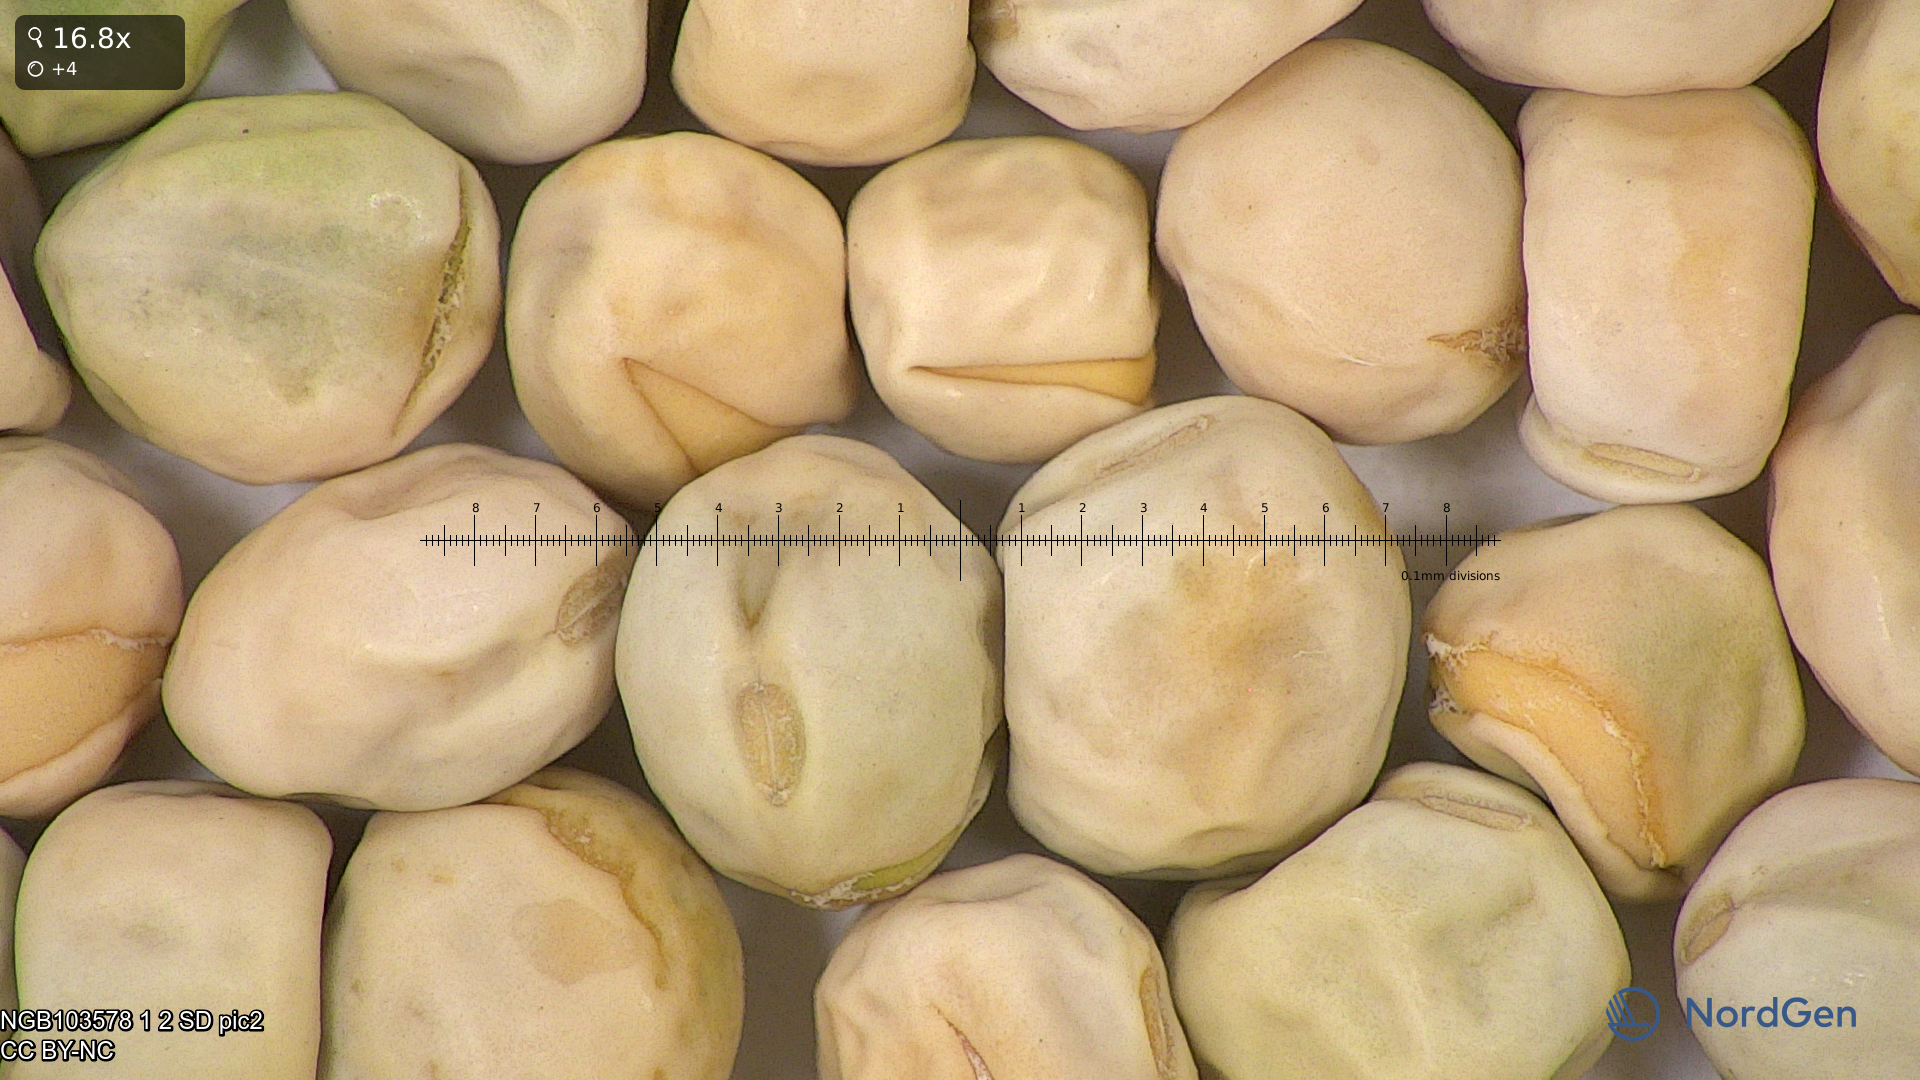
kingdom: Plantae
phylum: Tracheophyta
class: Magnoliopsida
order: Fabales
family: Fabaceae
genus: Lathyrus
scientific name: Lathyrus oleraceus
